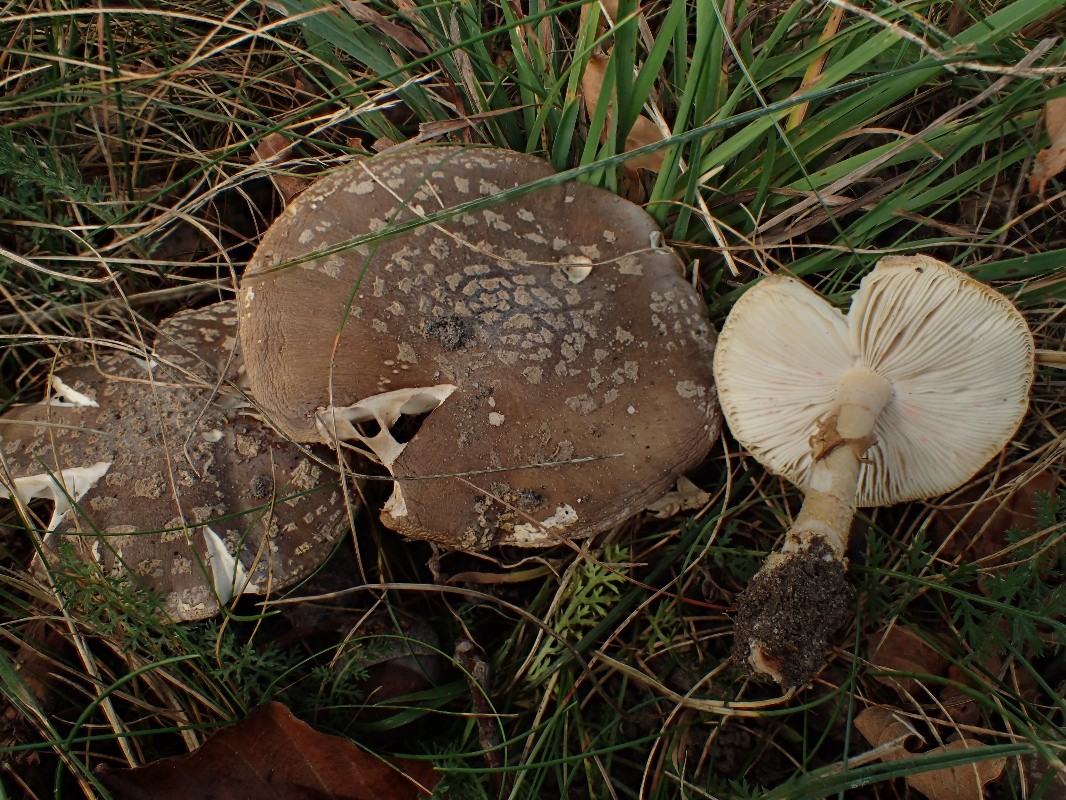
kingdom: Fungi
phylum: Basidiomycota
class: Agaricomycetes
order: Agaricales
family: Amanitaceae
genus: Amanita
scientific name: Amanita pantherina
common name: panter-fluesvamp
